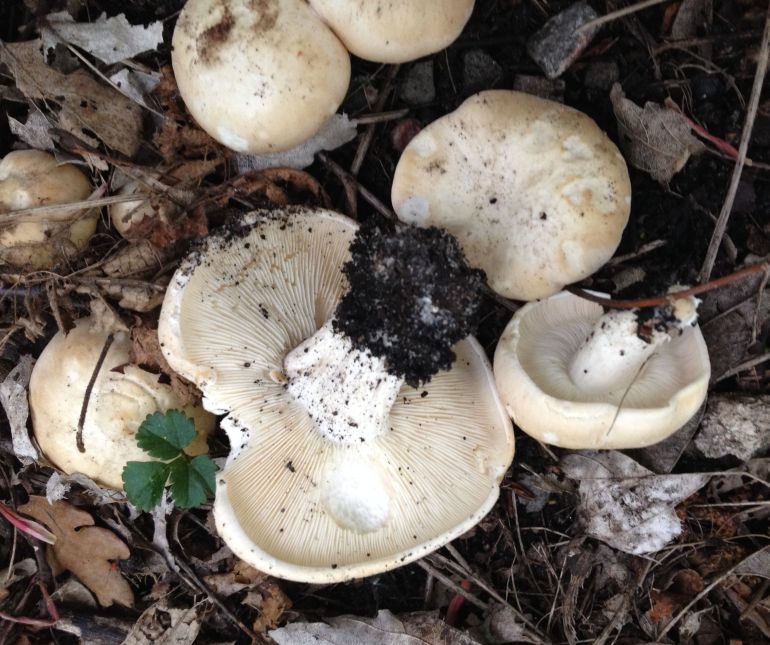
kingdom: Fungi
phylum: Basidiomycota
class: Agaricomycetes
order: Agaricales
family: Lyophyllaceae
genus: Calocybe
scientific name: Calocybe gambosa
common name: vårmusseron
